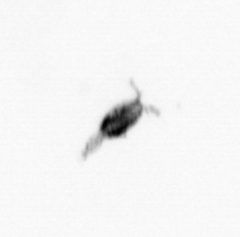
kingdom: Animalia
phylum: Arthropoda
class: Copepoda
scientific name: Copepoda
